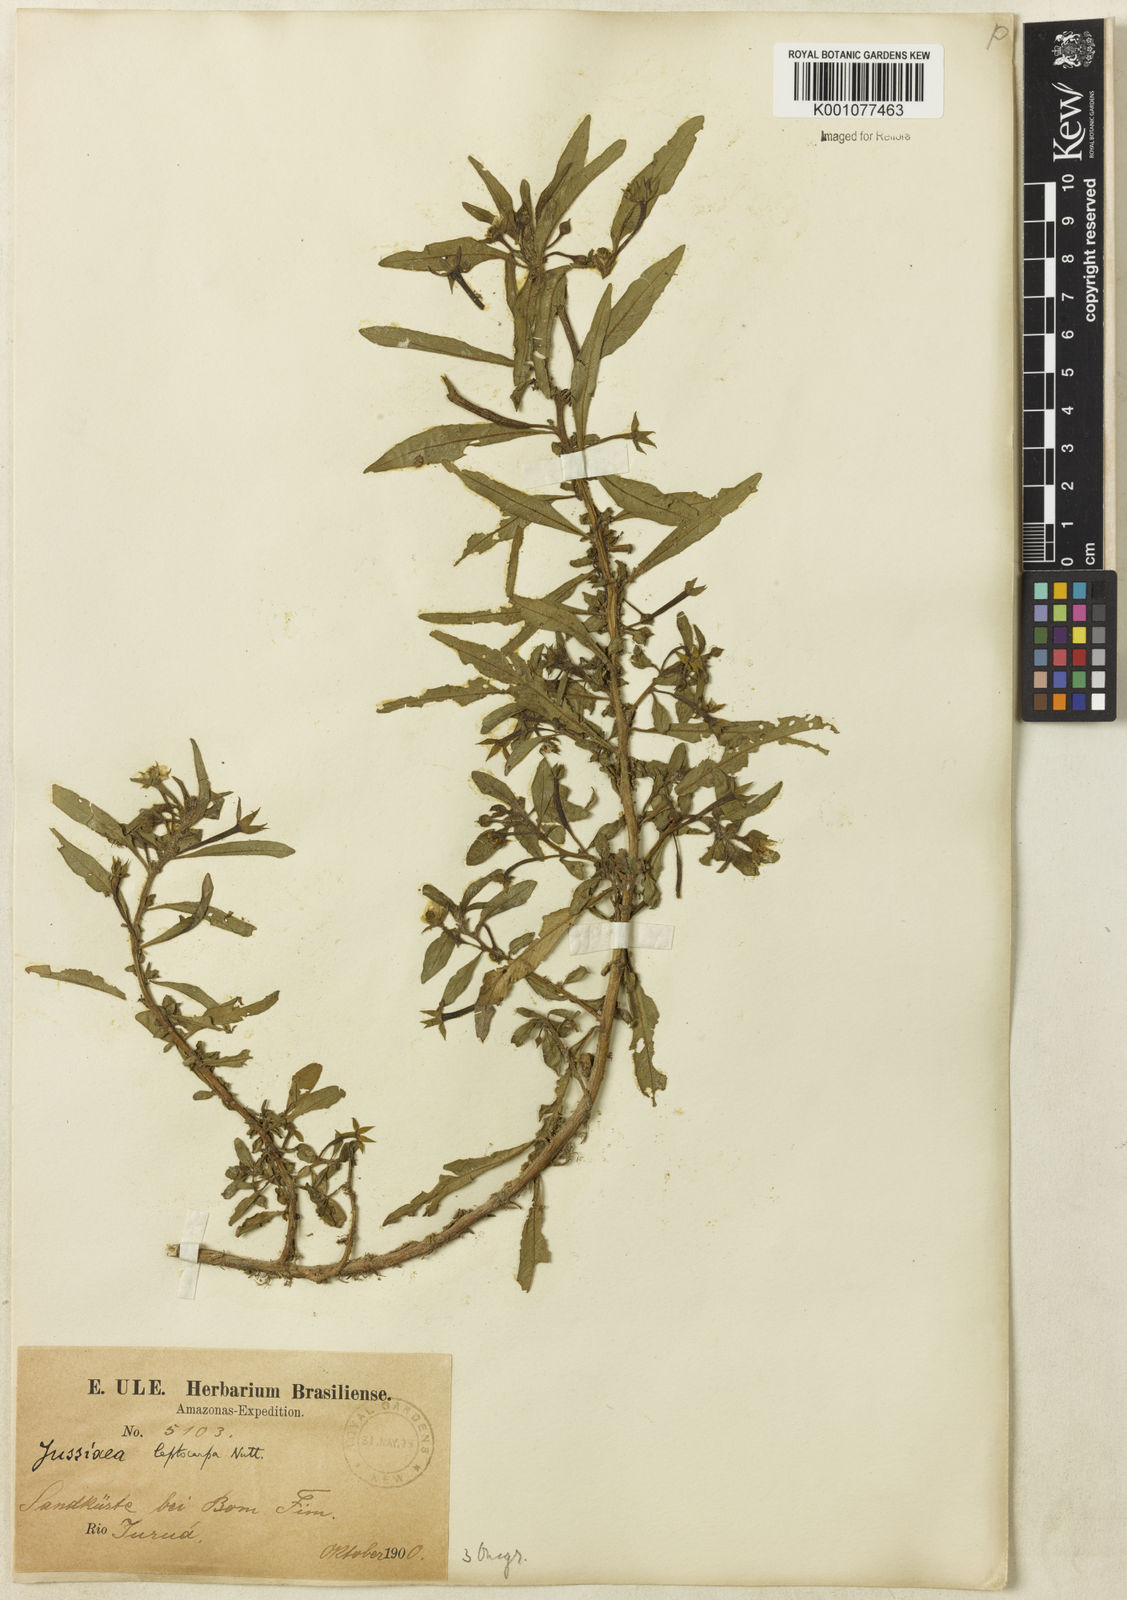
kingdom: Plantae
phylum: Tracheophyta
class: Magnoliopsida
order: Myrtales
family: Onagraceae
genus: Ludwigia
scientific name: Ludwigia leptocarpa
